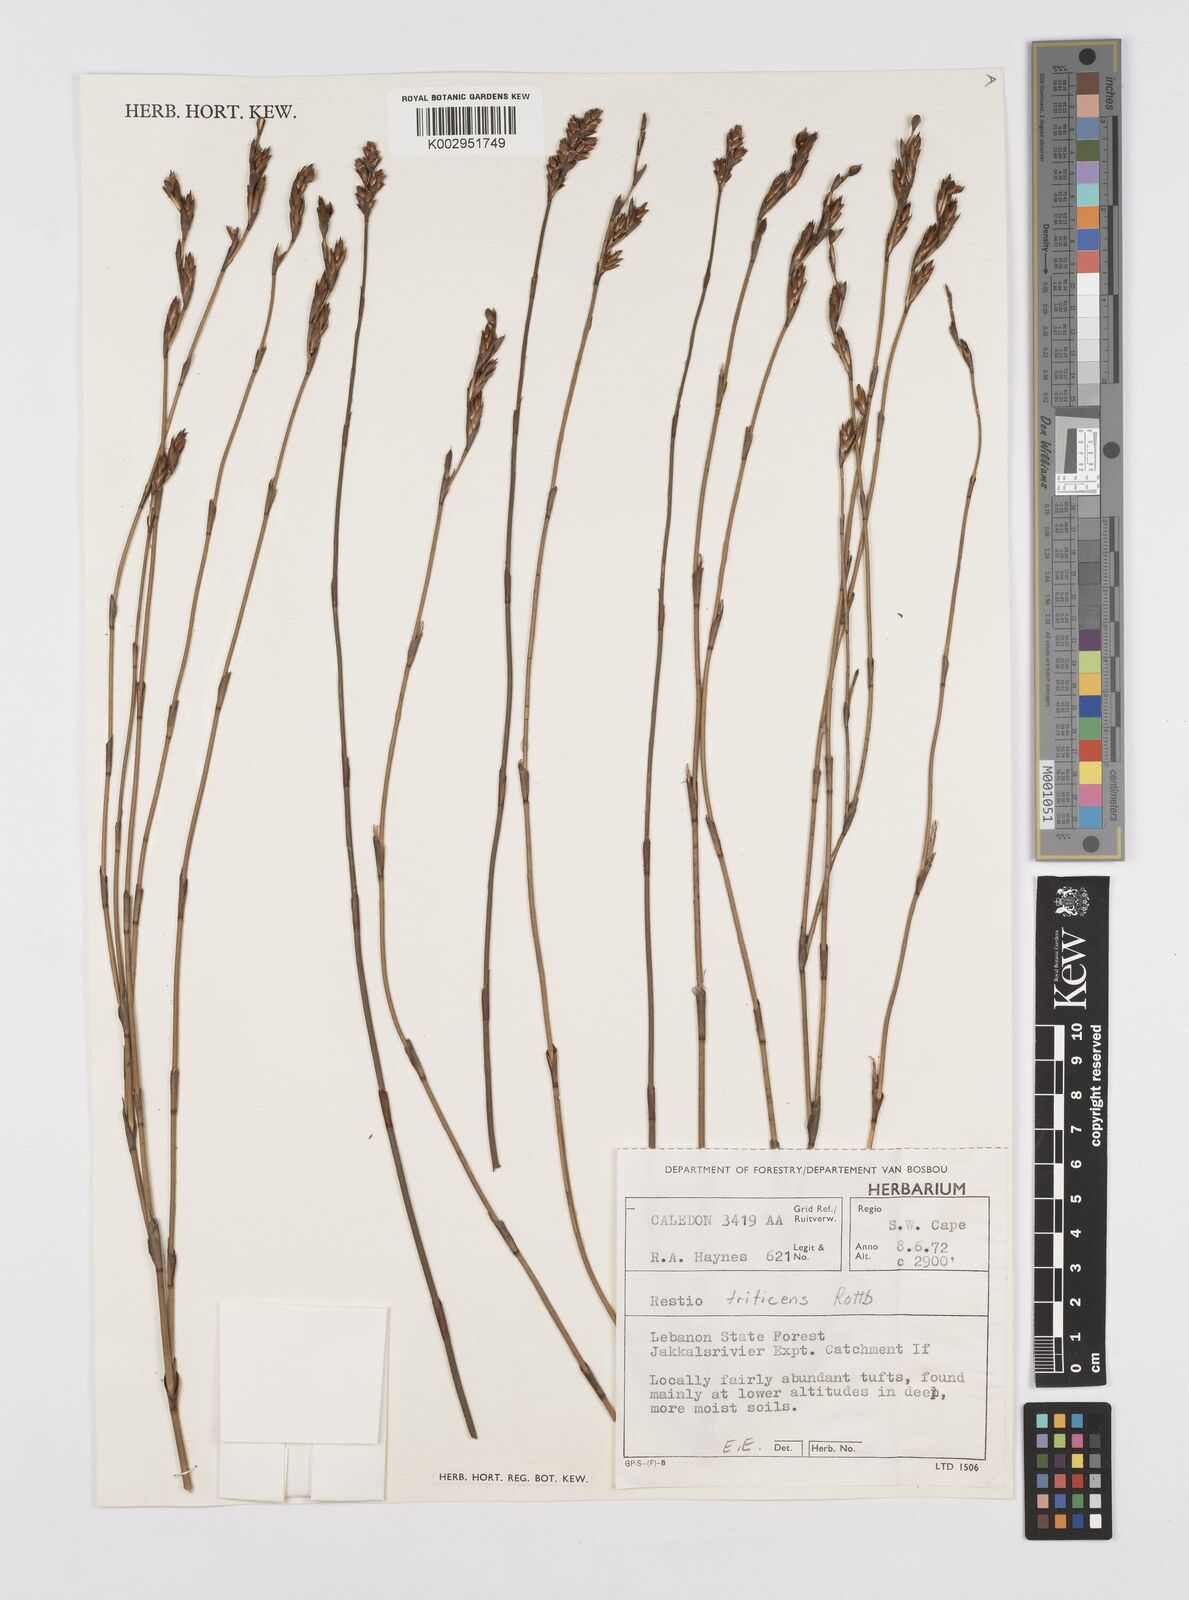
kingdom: Plantae
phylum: Tracheophyta
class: Liliopsida
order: Poales
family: Restionaceae
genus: Restio
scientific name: Restio triticeus
